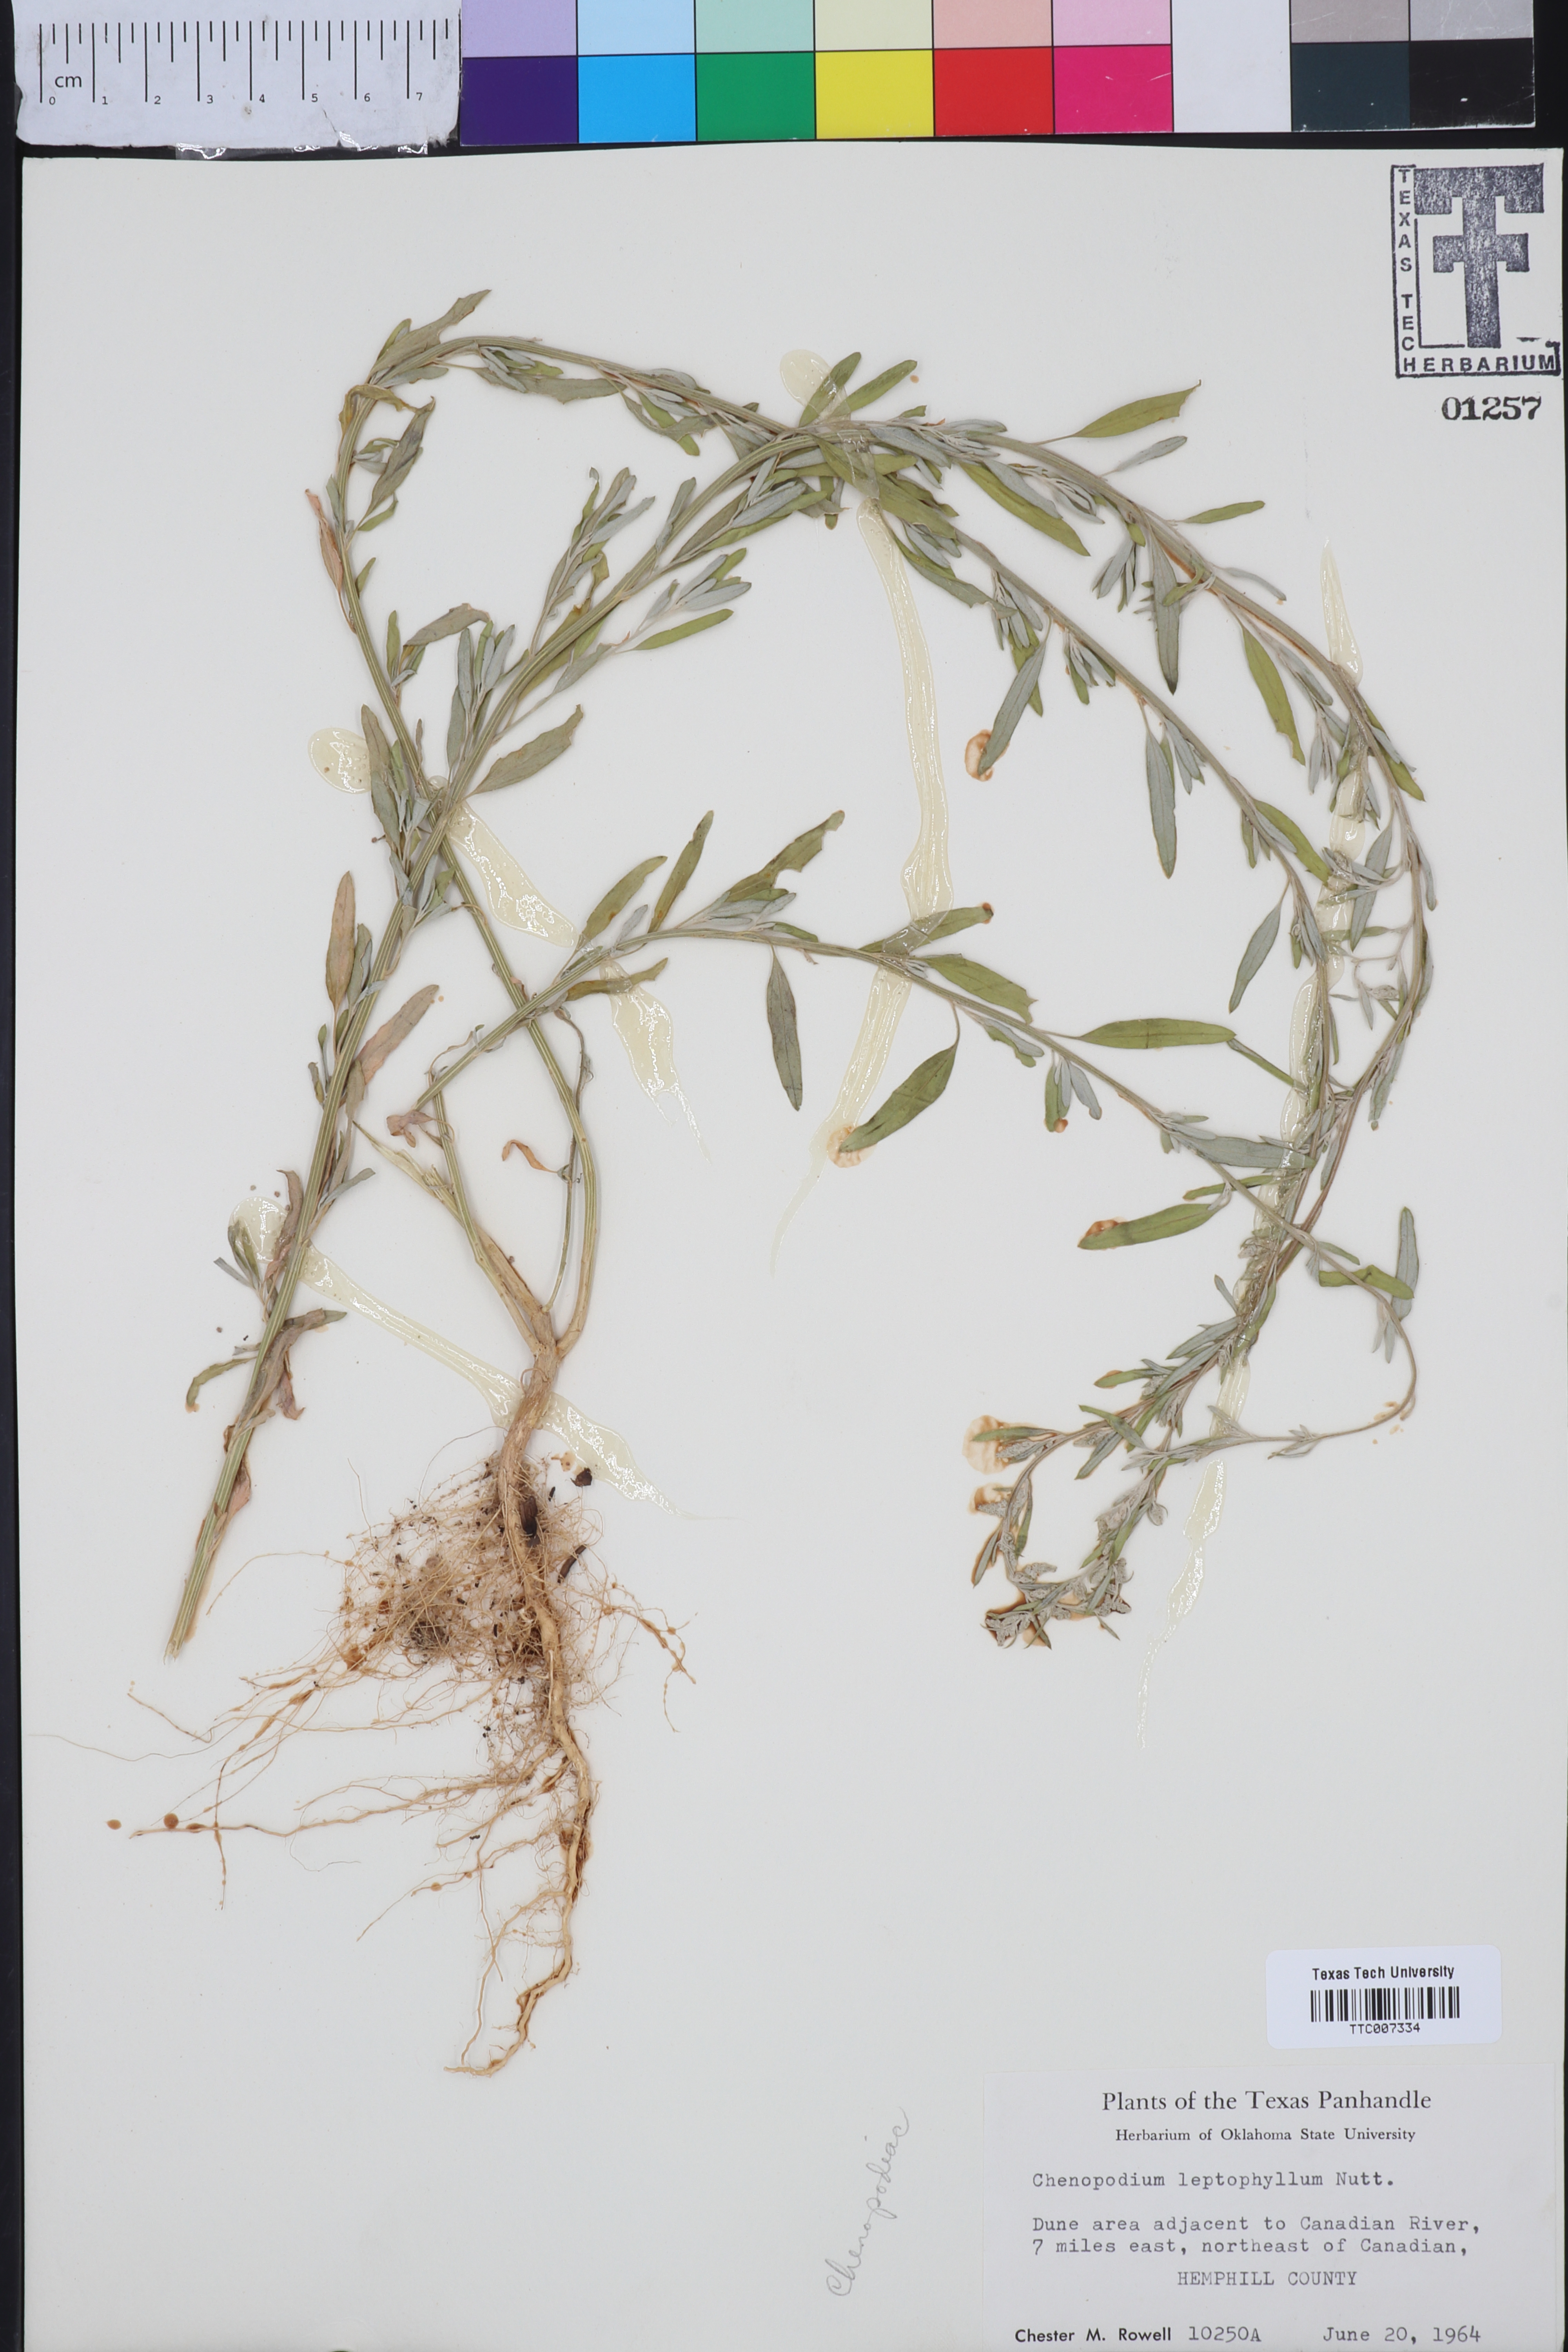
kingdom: Plantae
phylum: Tracheophyta
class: Magnoliopsida
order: Caryophyllales
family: Amaranthaceae
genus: Chenopodium
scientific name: Chenopodium leptophyllum
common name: Narrow-leaf goosefoot
